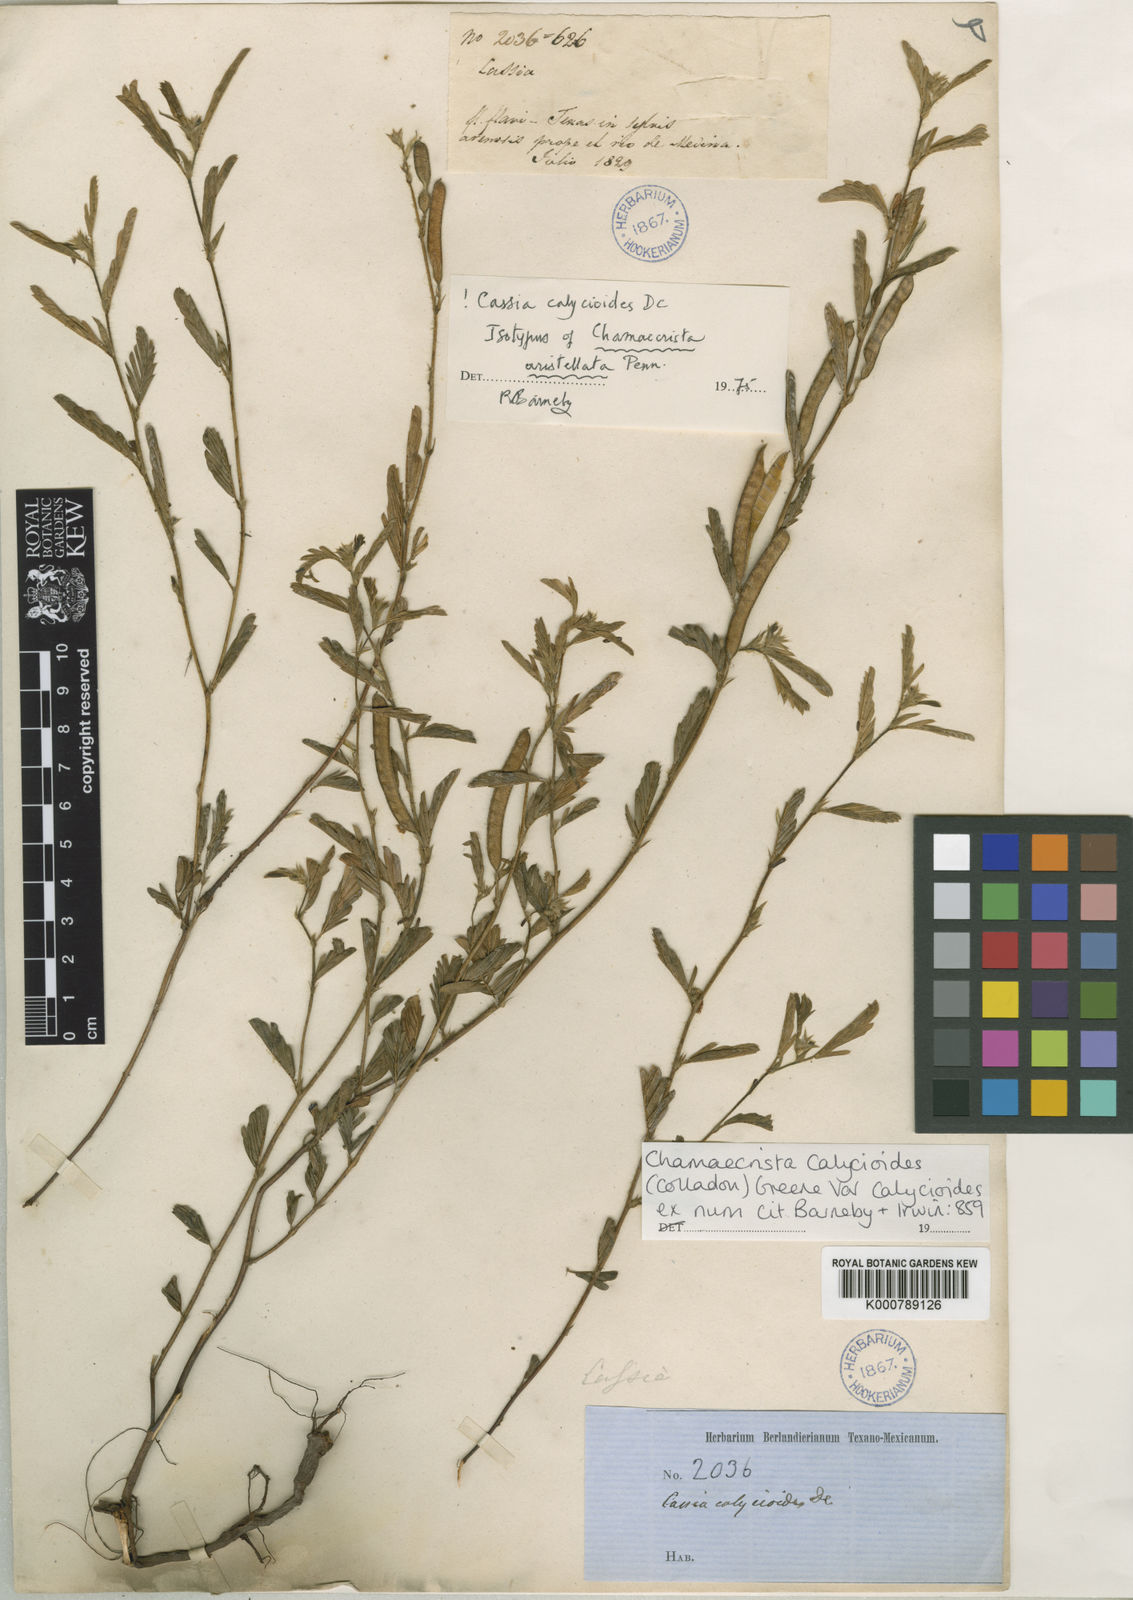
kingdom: Plantae
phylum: Tracheophyta
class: Magnoliopsida
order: Fabales
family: Fabaceae
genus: Chamaecrista
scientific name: Chamaecrista calycioides
